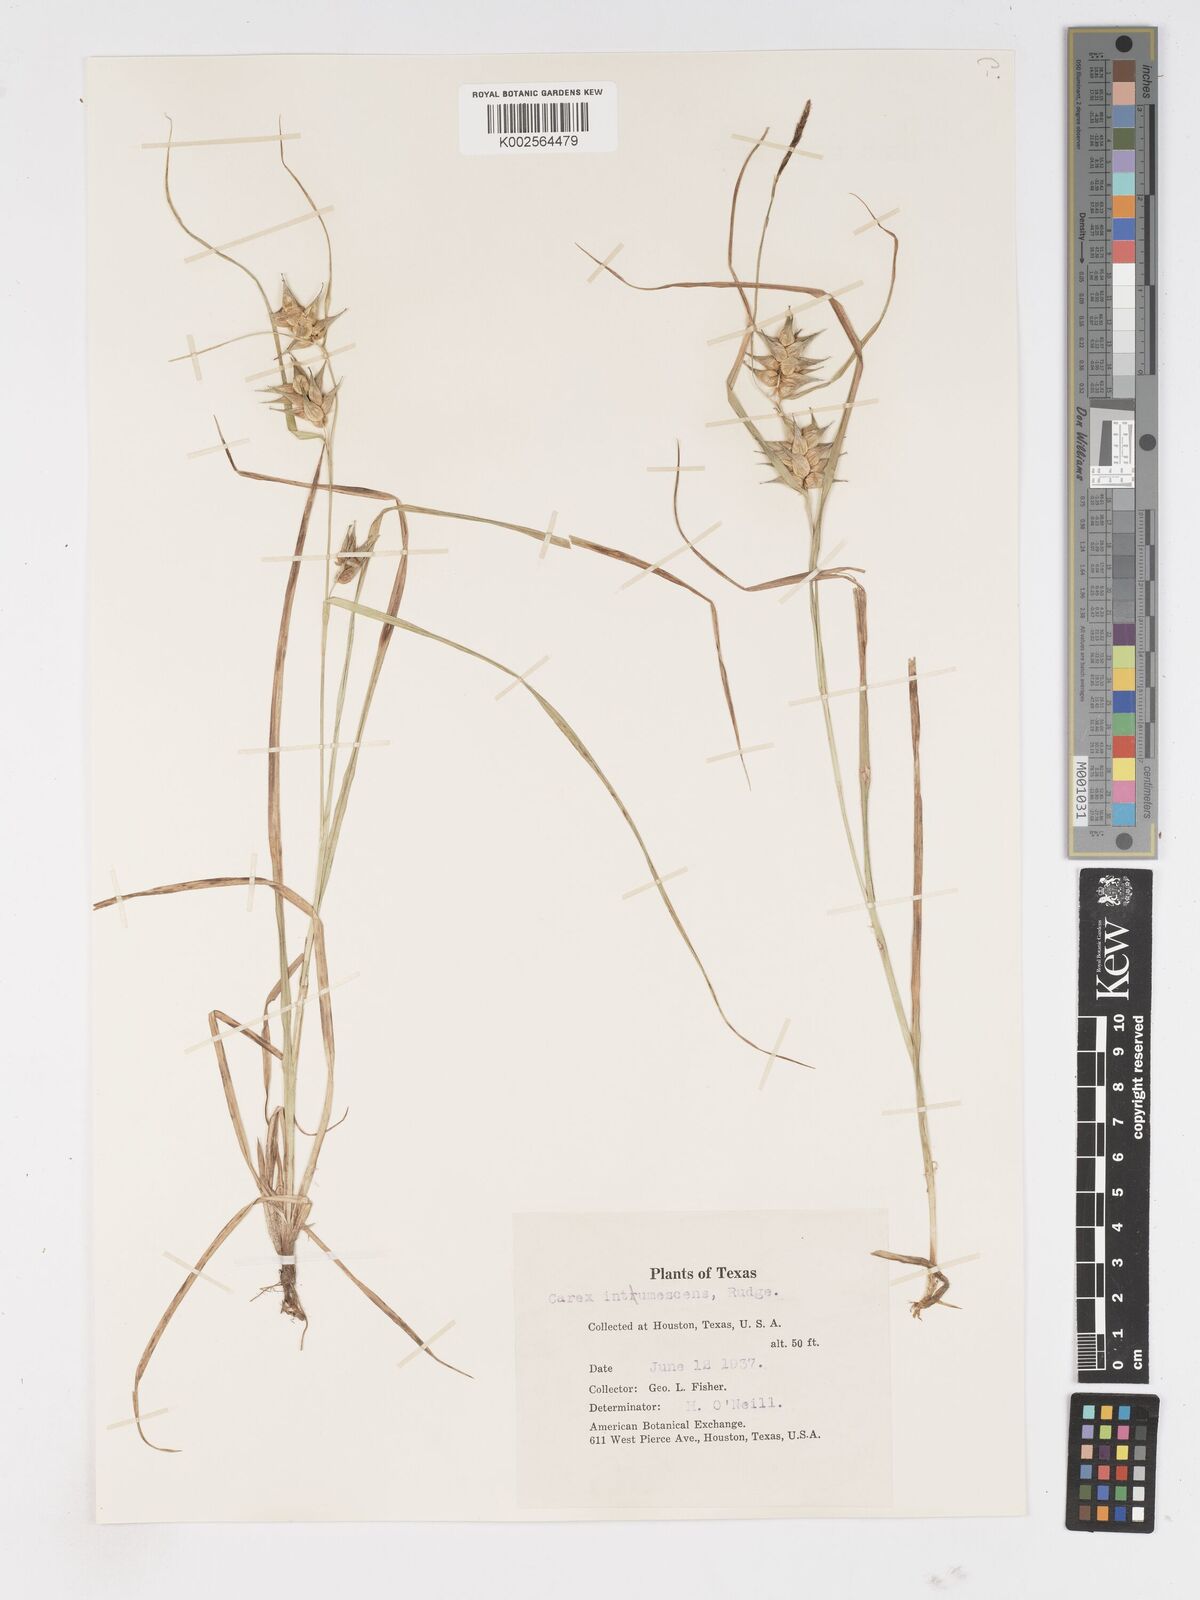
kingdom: Plantae
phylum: Tracheophyta
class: Liliopsida
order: Poales
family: Cyperaceae
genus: Carex
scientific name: Carex intumescens
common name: Greater bladder sedge
